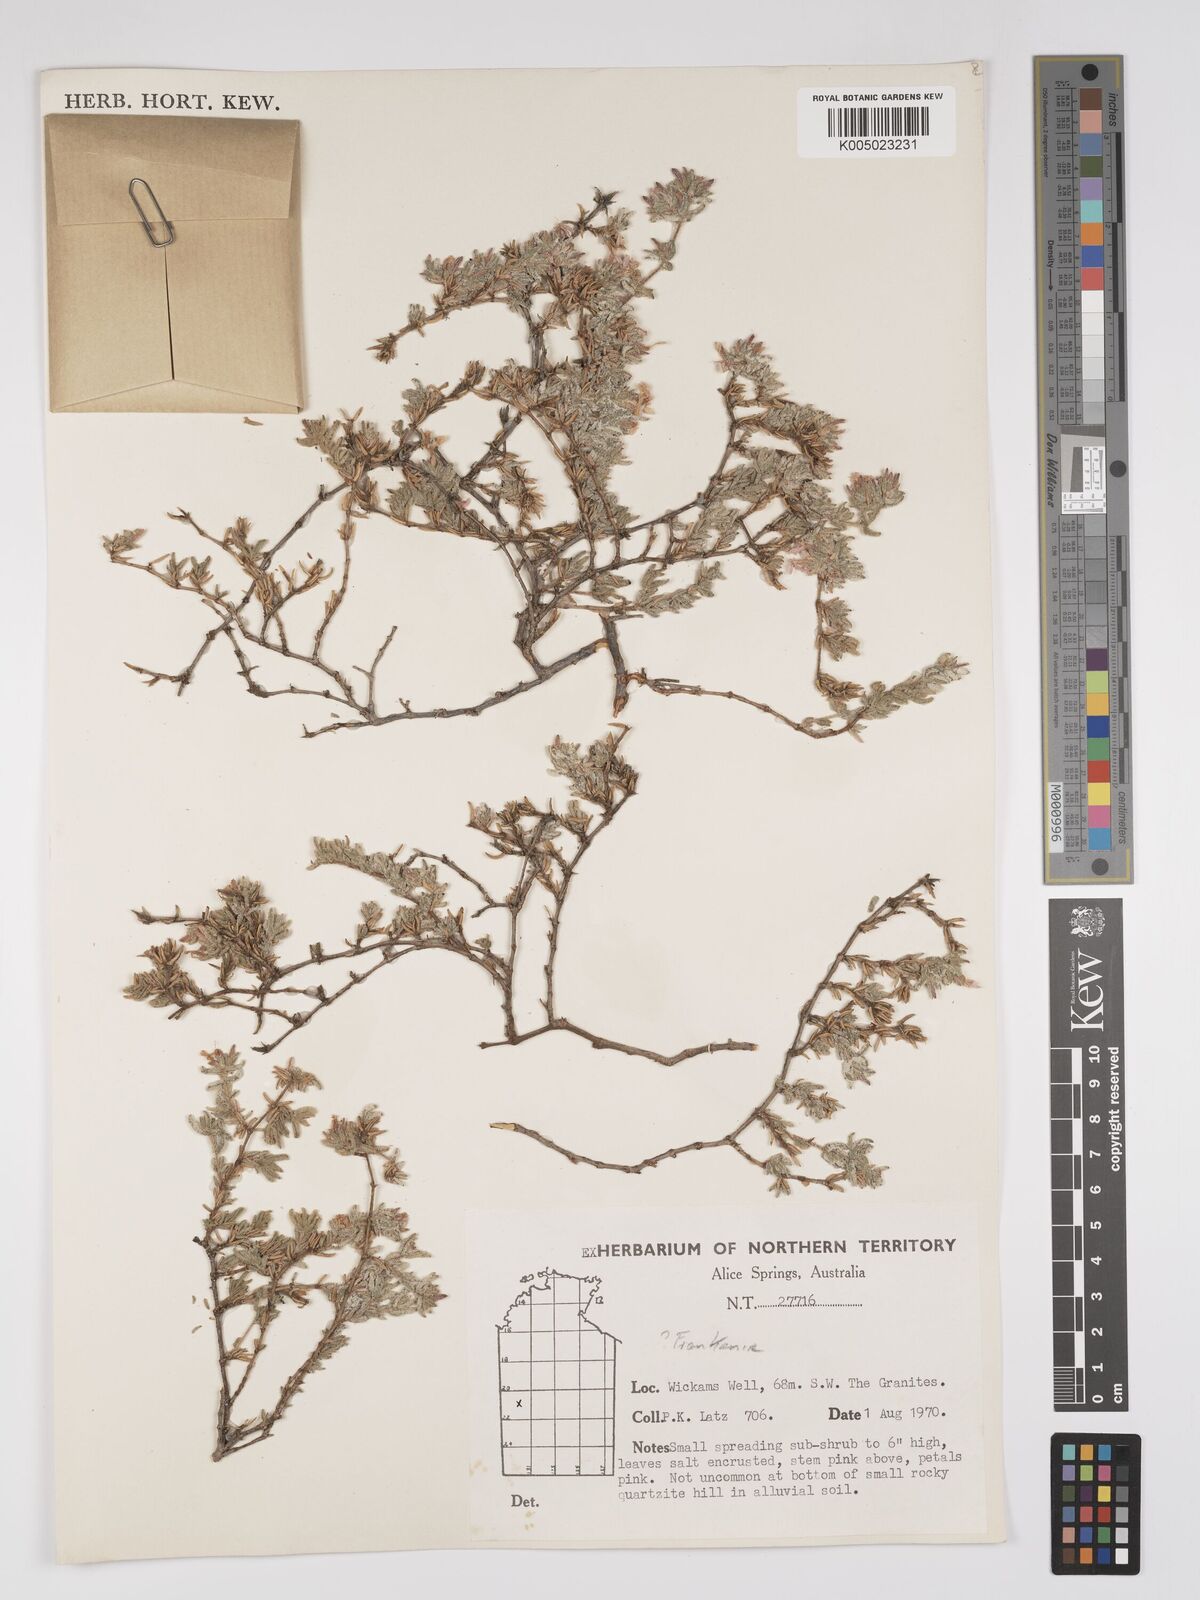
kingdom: Plantae
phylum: Tracheophyta
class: Magnoliopsida
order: Caryophyllales
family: Frankeniaceae
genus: Frankenia
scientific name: Frankenia
